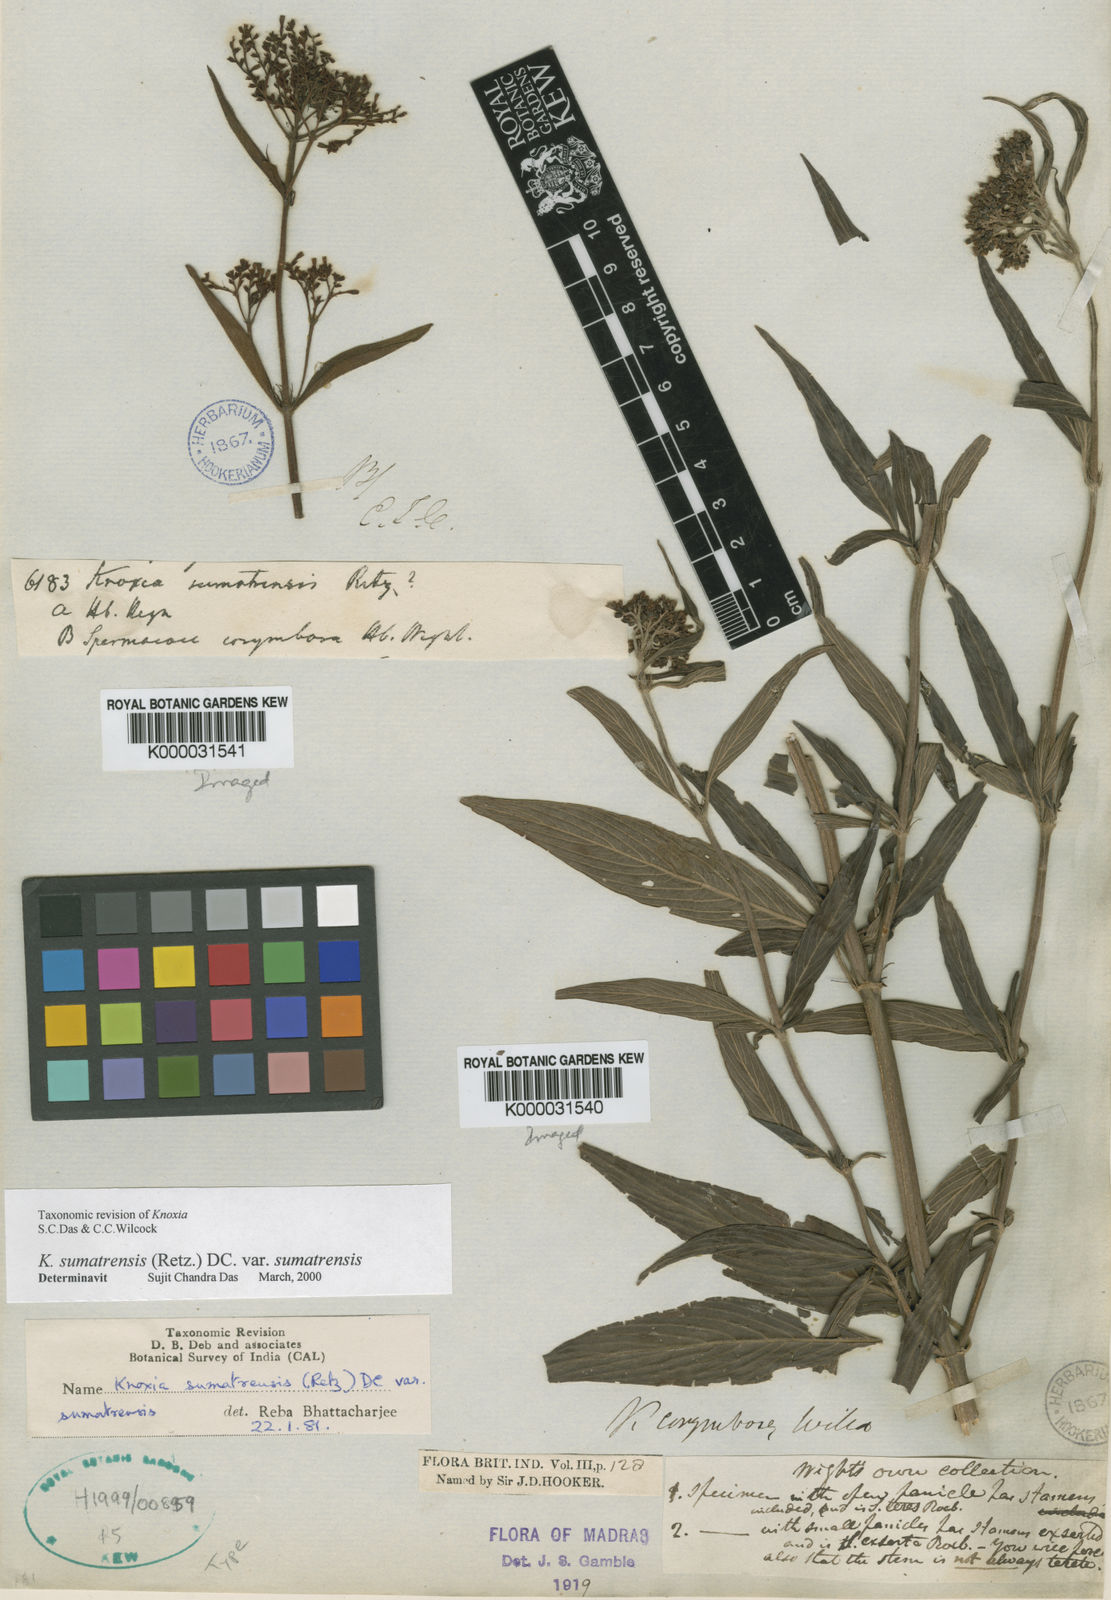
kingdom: Plantae
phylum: Tracheophyta
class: Magnoliopsida
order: Gentianales
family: Rubiaceae
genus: Knoxia
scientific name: Knoxia sumatrensis
